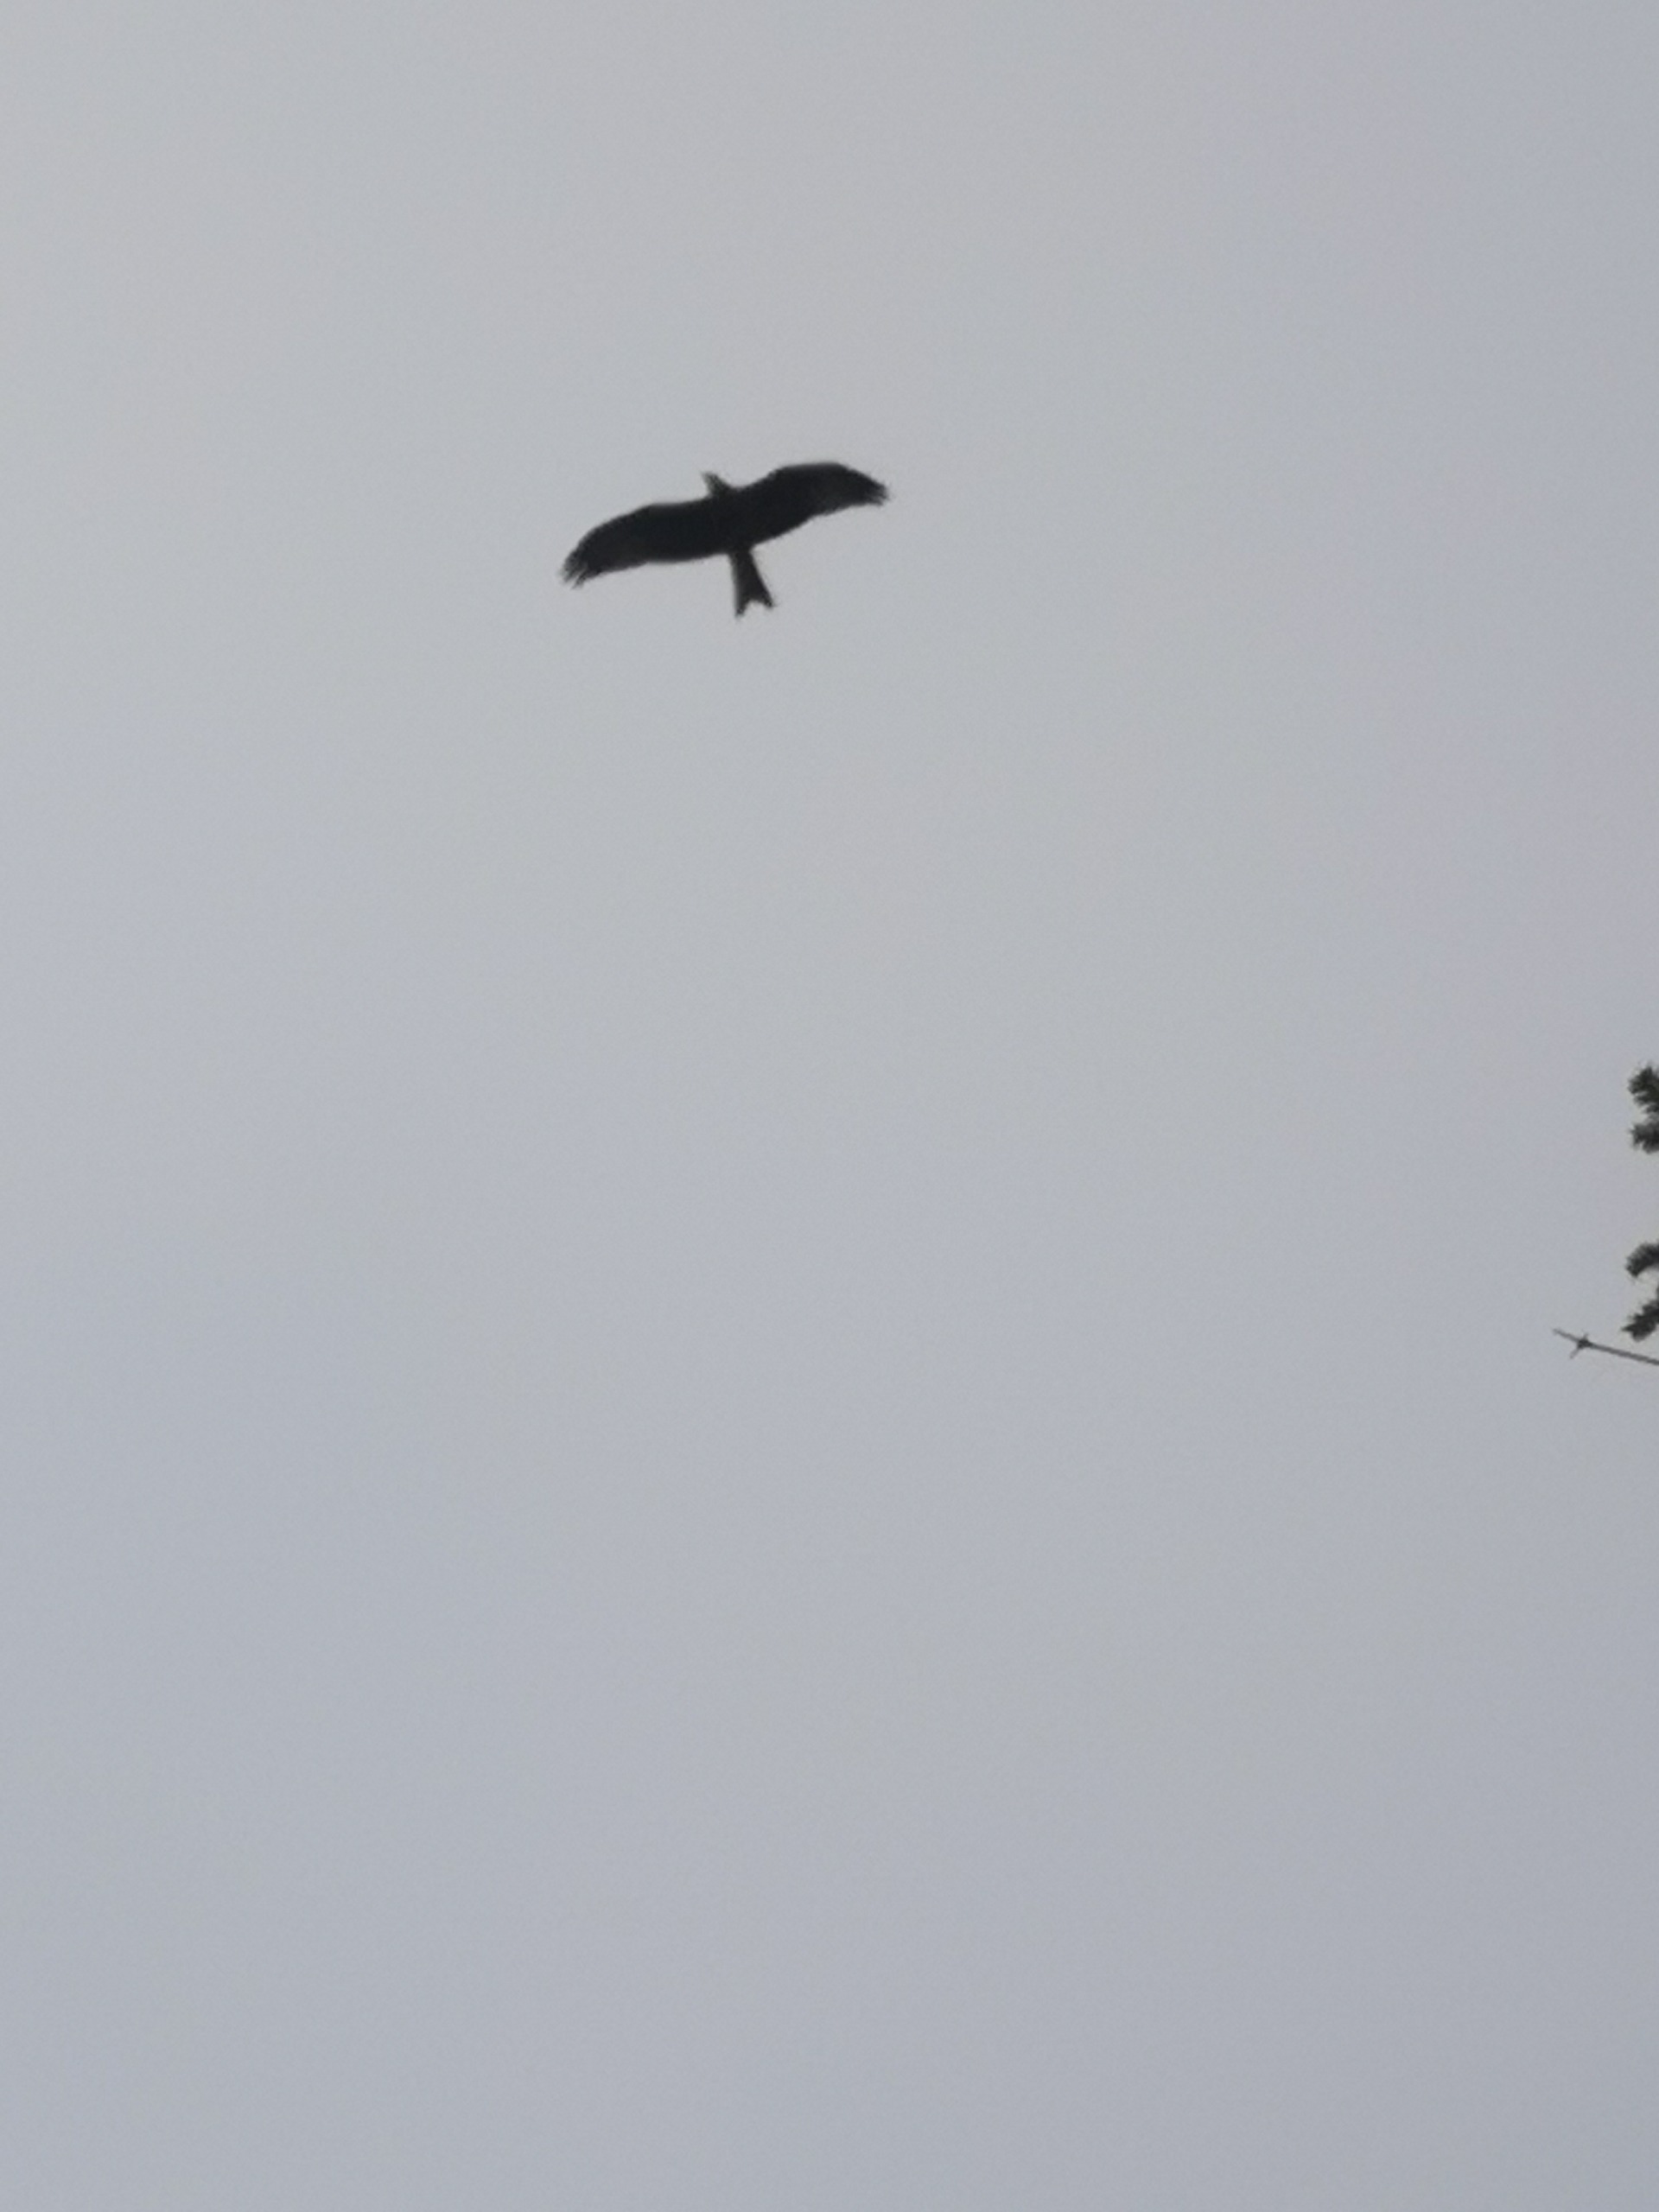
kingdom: Animalia
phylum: Chordata
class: Aves
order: Accipitriformes
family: Accipitridae
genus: Milvus
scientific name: Milvus milvus
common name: Rød glente
